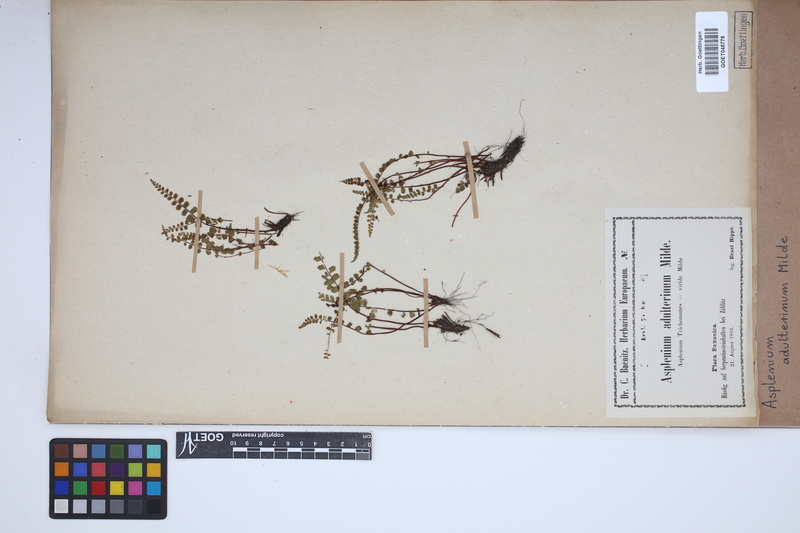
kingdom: Plantae
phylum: Tracheophyta
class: Polypodiopsida
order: Polypodiales
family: Aspleniaceae
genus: Asplenium
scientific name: Asplenium adulterinum
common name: Adulterated spleenwort
